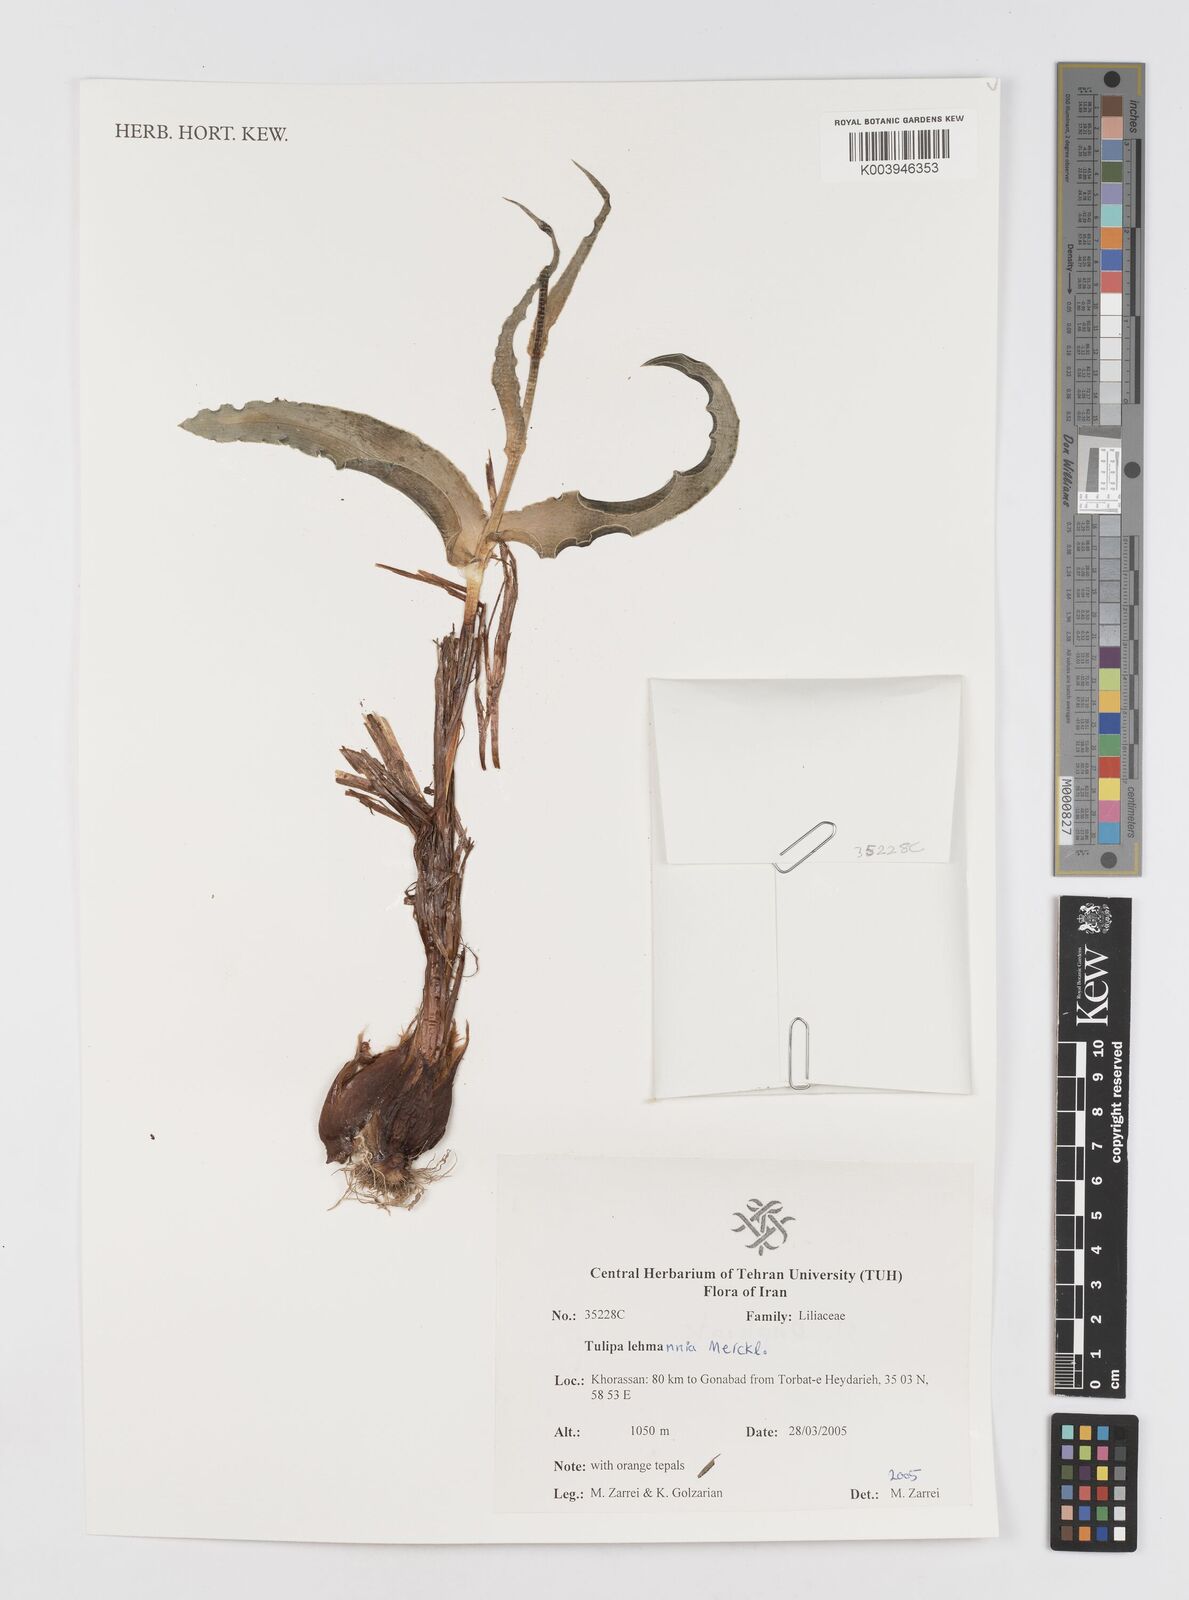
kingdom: Plantae
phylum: Tracheophyta
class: Liliopsida
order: Liliales
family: Liliaceae
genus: Tulipa
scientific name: Tulipa lehmanniana
